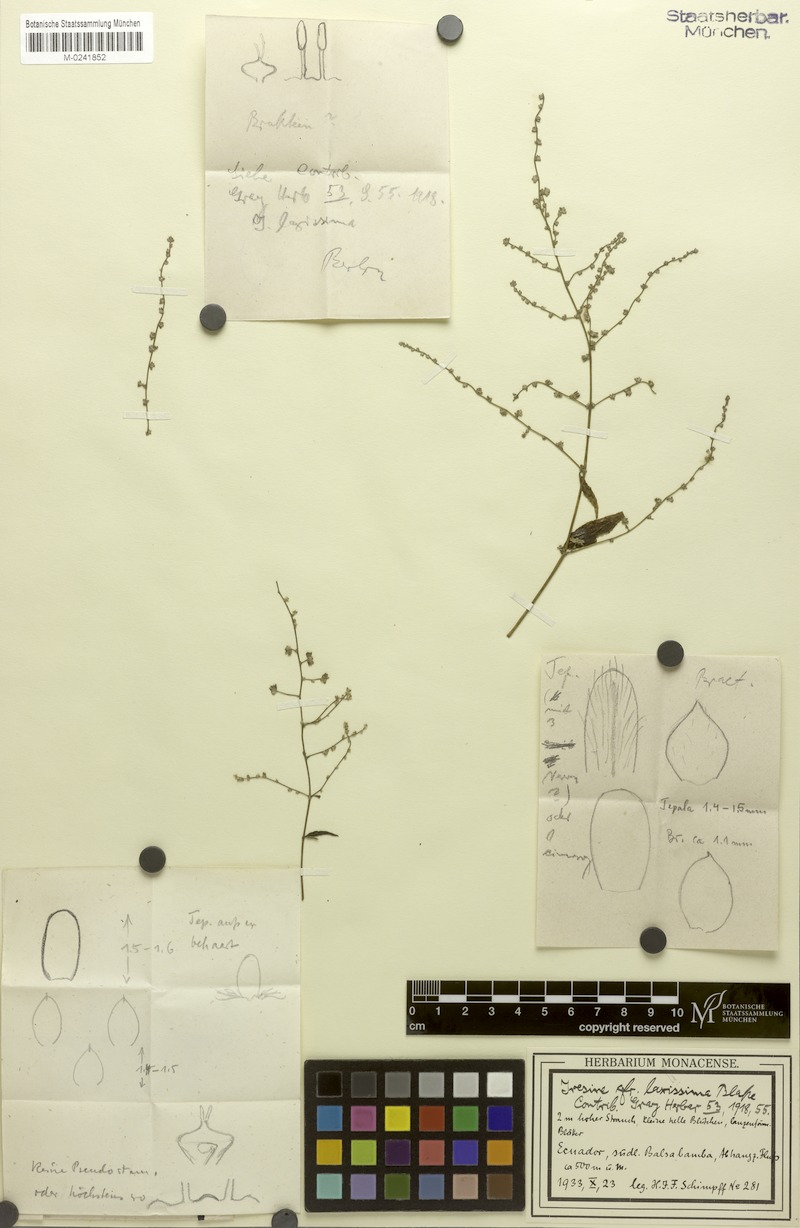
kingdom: Plantae
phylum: Tracheophyta
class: Magnoliopsida
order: Caryophyllales
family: Amaranthaceae
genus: Iresine
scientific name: Iresine angustifolia
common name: White snowplant
